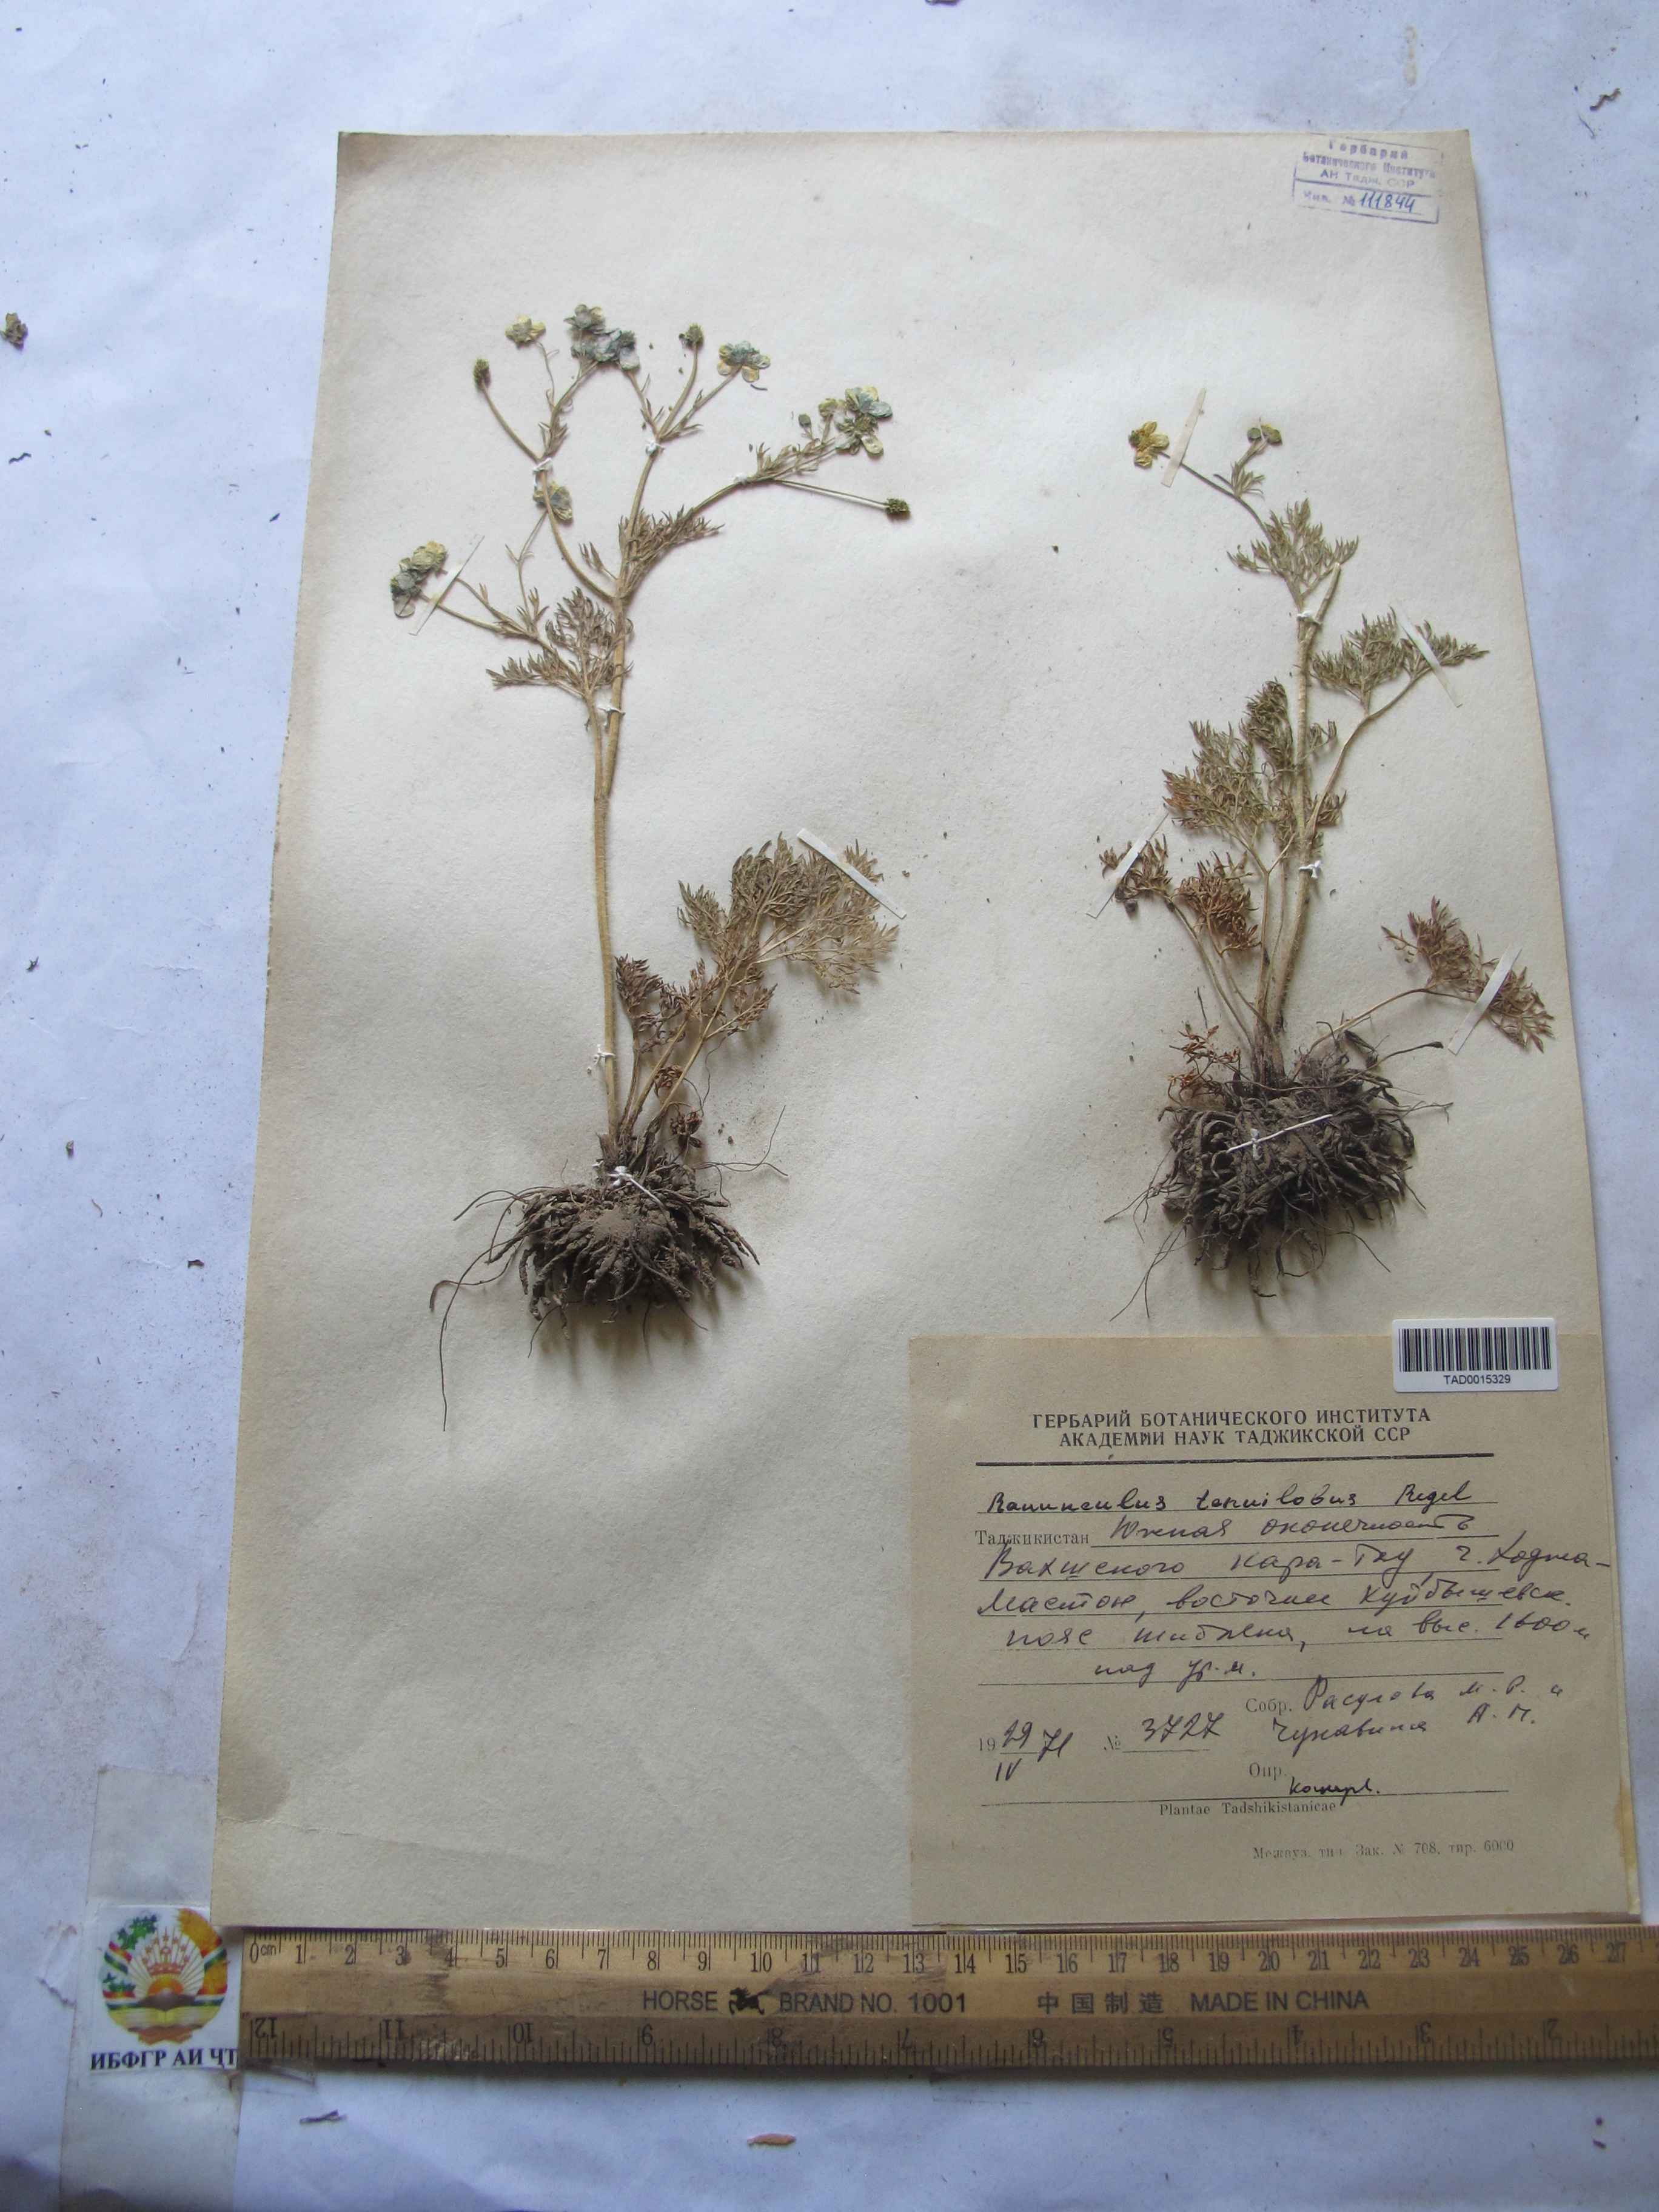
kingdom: Plantae
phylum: Tracheophyta
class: Magnoliopsida
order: Ranunculales
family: Ranunculaceae
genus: Ranunculus
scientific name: Ranunculus tenuilobus
